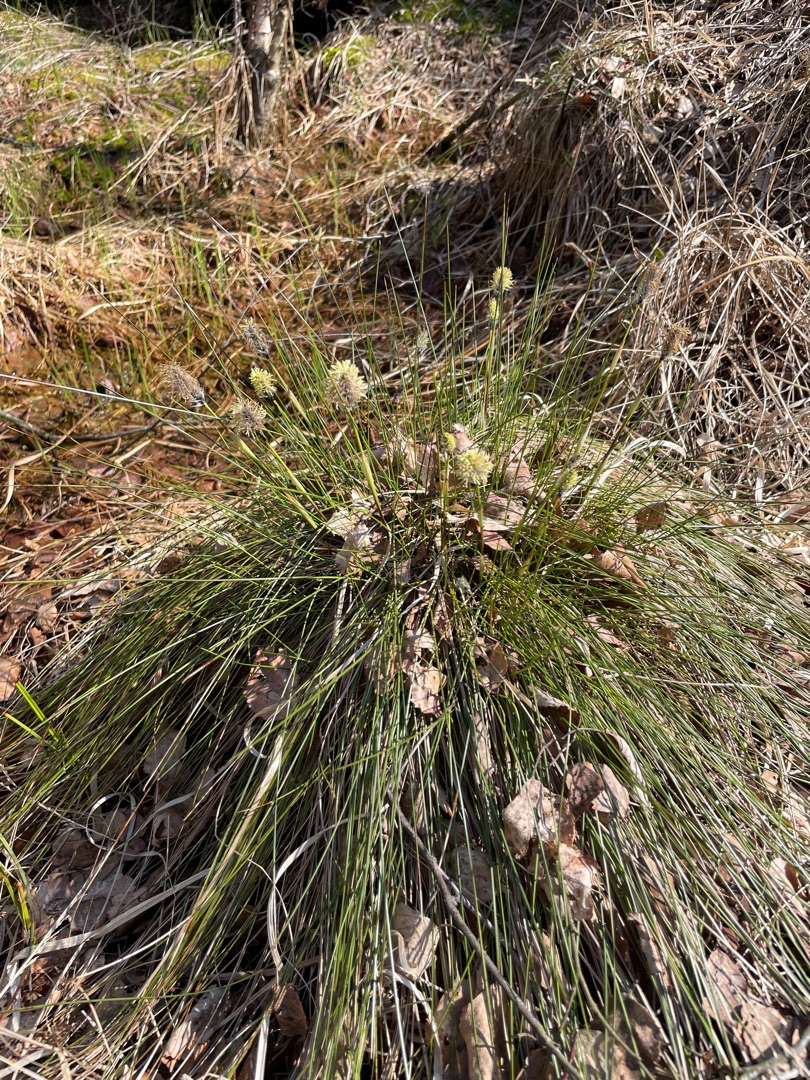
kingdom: Plantae
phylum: Tracheophyta
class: Liliopsida
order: Poales
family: Cyperaceae
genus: Eriophorum
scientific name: Eriophorum vaginatum
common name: Tue-kæruld
